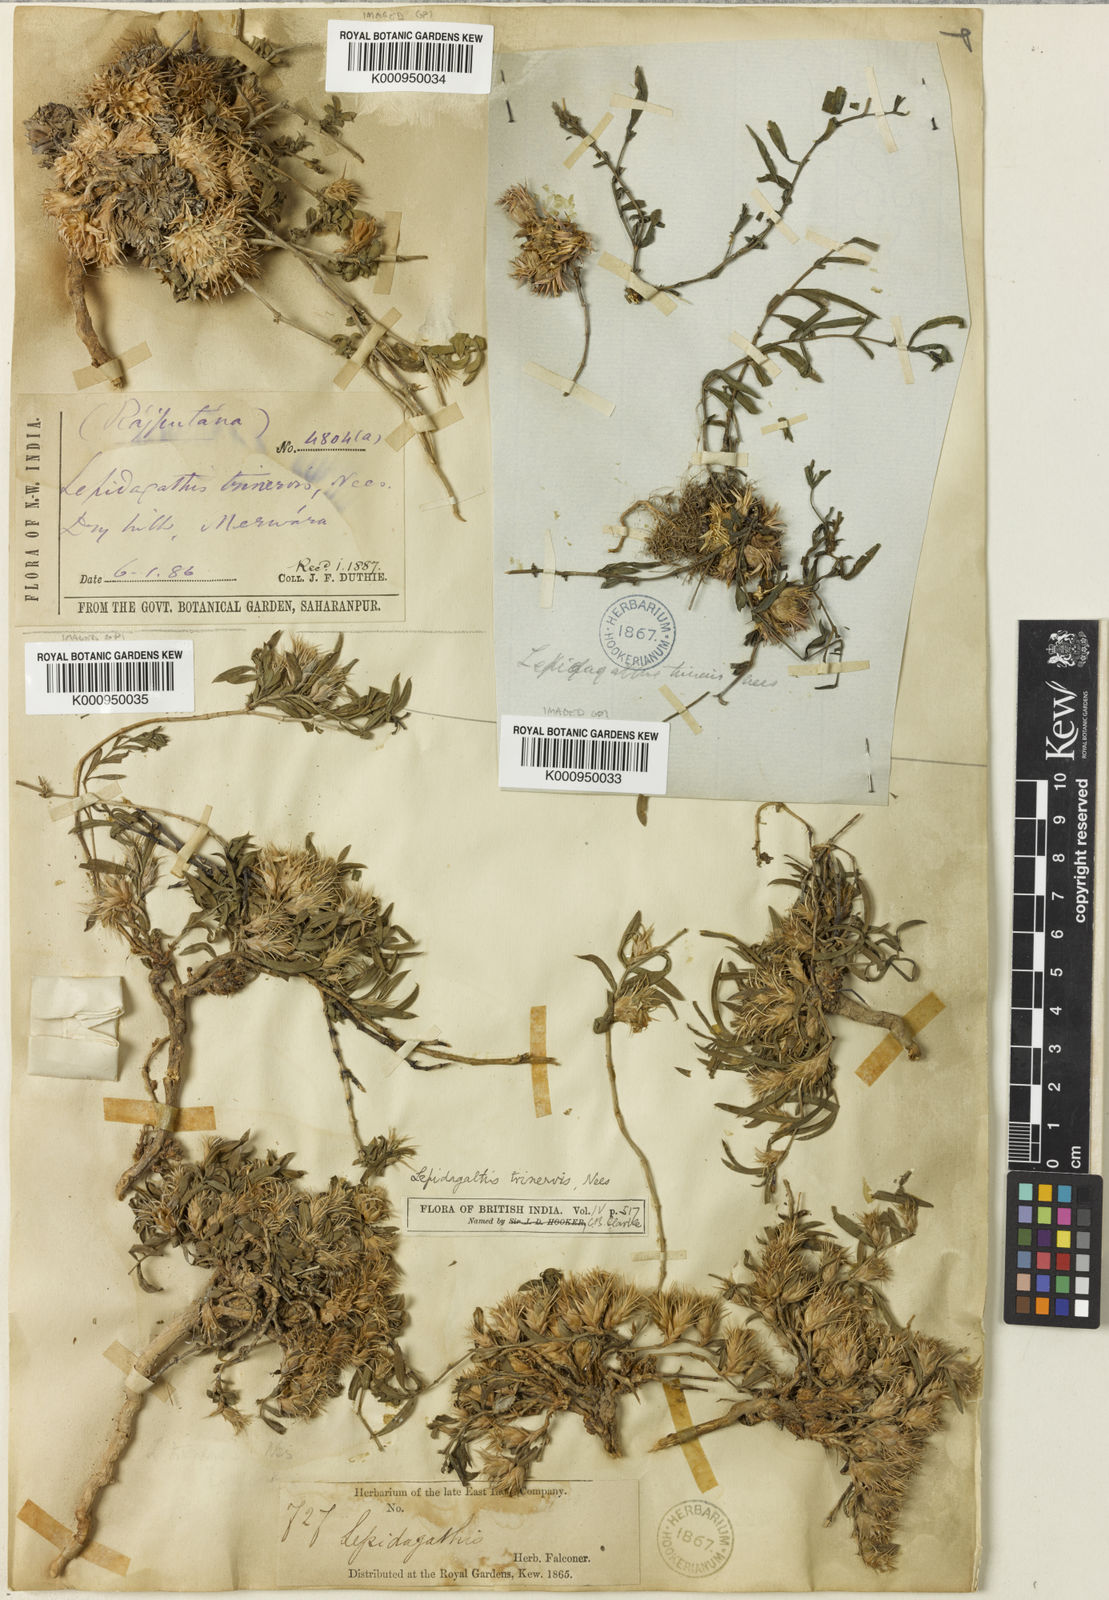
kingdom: Plantae
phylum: Tracheophyta
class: Magnoliopsida
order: Lamiales
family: Acanthaceae
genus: Lepidagathis
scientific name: Lepidagathis trinervis
